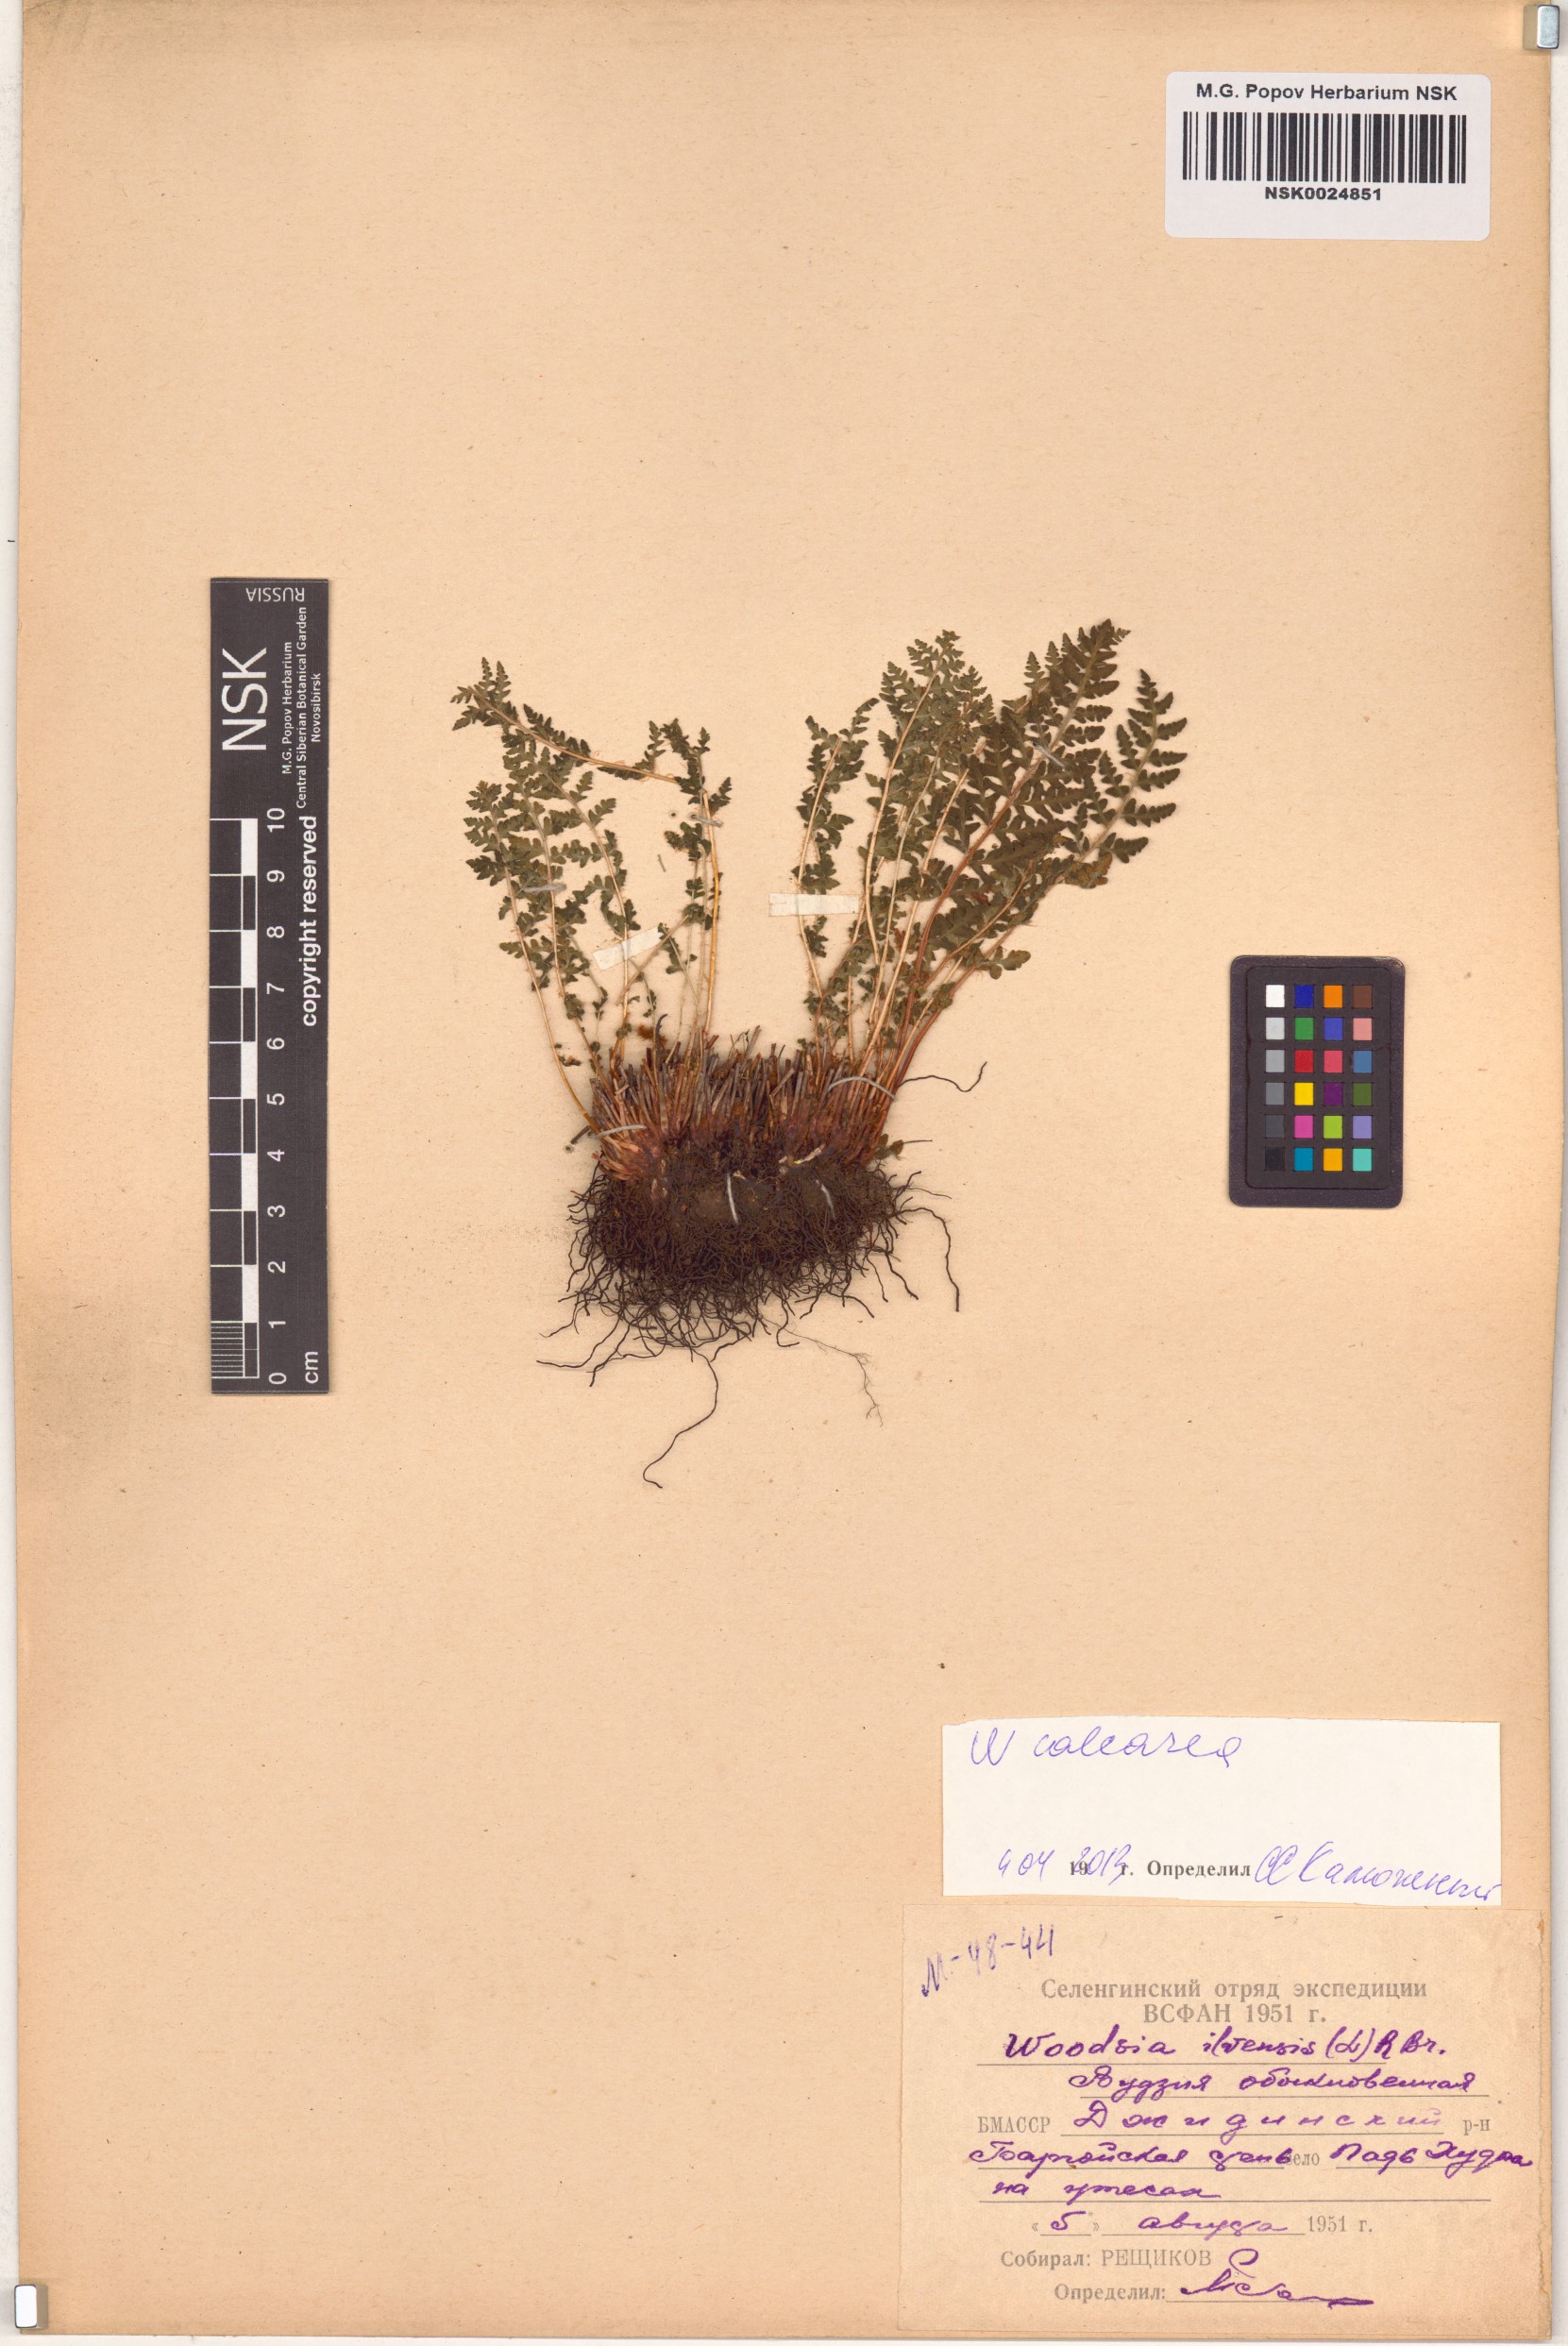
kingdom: Plantae
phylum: Tracheophyta
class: Polypodiopsida
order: Polypodiales
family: Woodsiaceae
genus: Woodsia
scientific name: Woodsia calcarea
